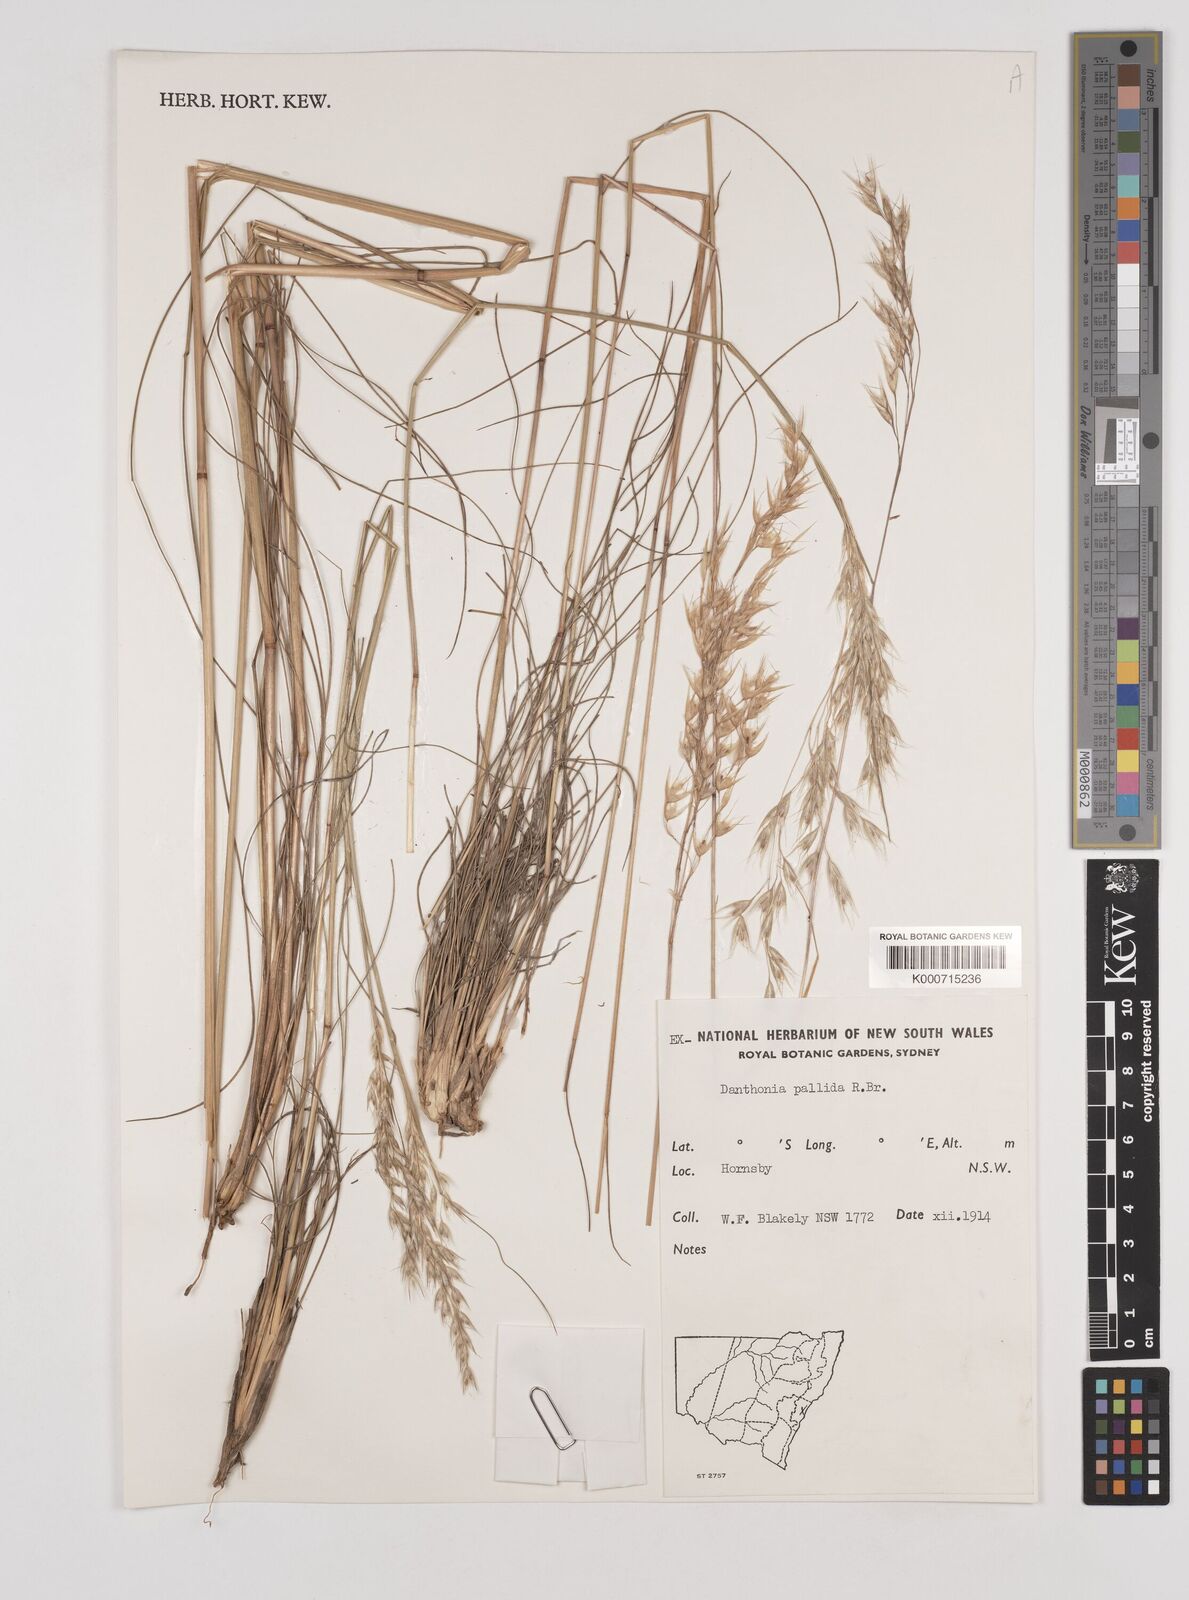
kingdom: Plantae
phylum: Tracheophyta
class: Liliopsida
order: Poales
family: Poaceae
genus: Rytidosperma
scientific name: Rytidosperma
